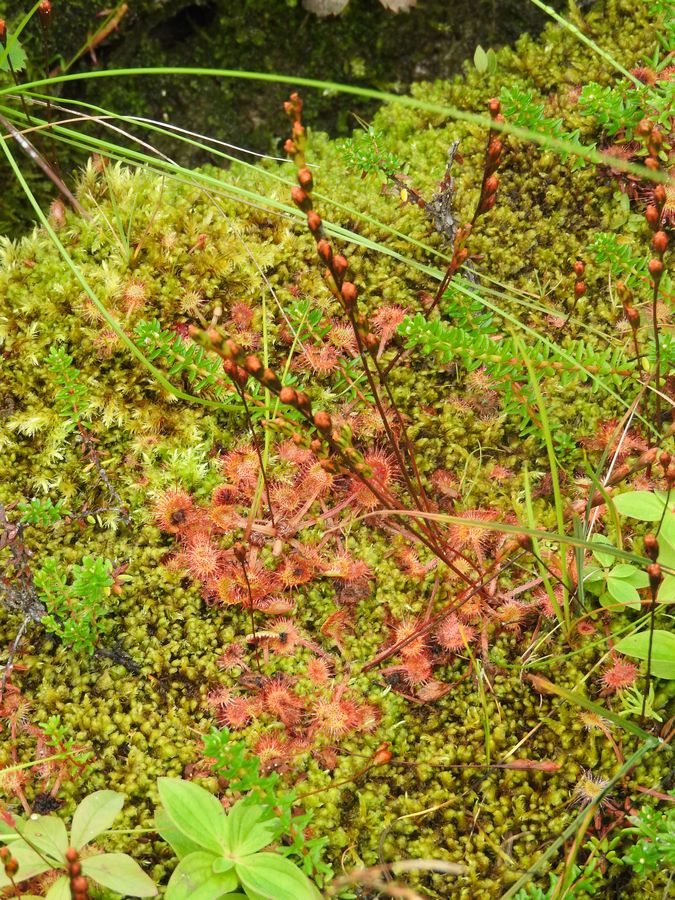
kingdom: Plantae
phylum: Tracheophyta
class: Magnoliopsida
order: Caryophyllales
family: Droseraceae
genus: Drosera
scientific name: Drosera rotundifolia
